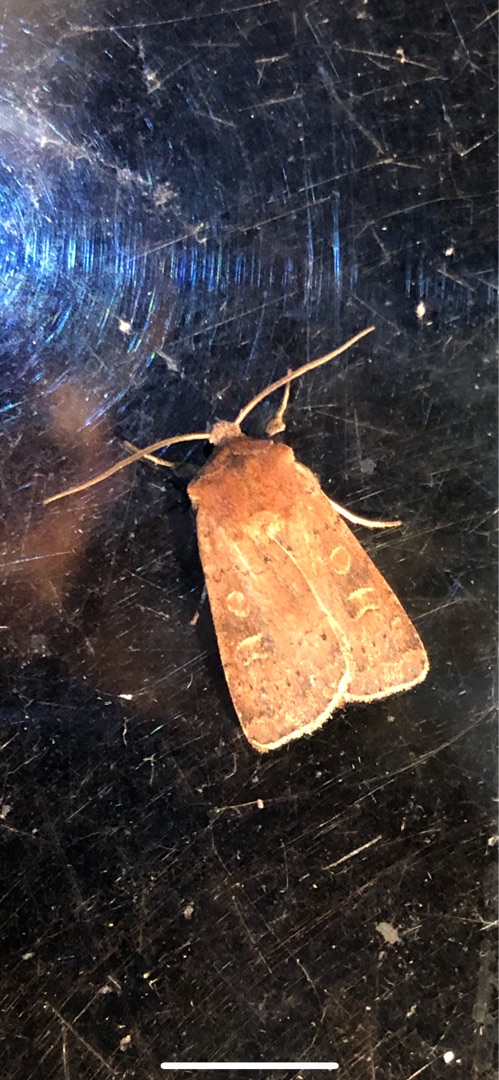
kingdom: Animalia
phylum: Arthropoda
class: Insecta
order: Lepidoptera
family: Noctuidae
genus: Xestia
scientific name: Xestia xanthographa
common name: Gulmærket glansugle
